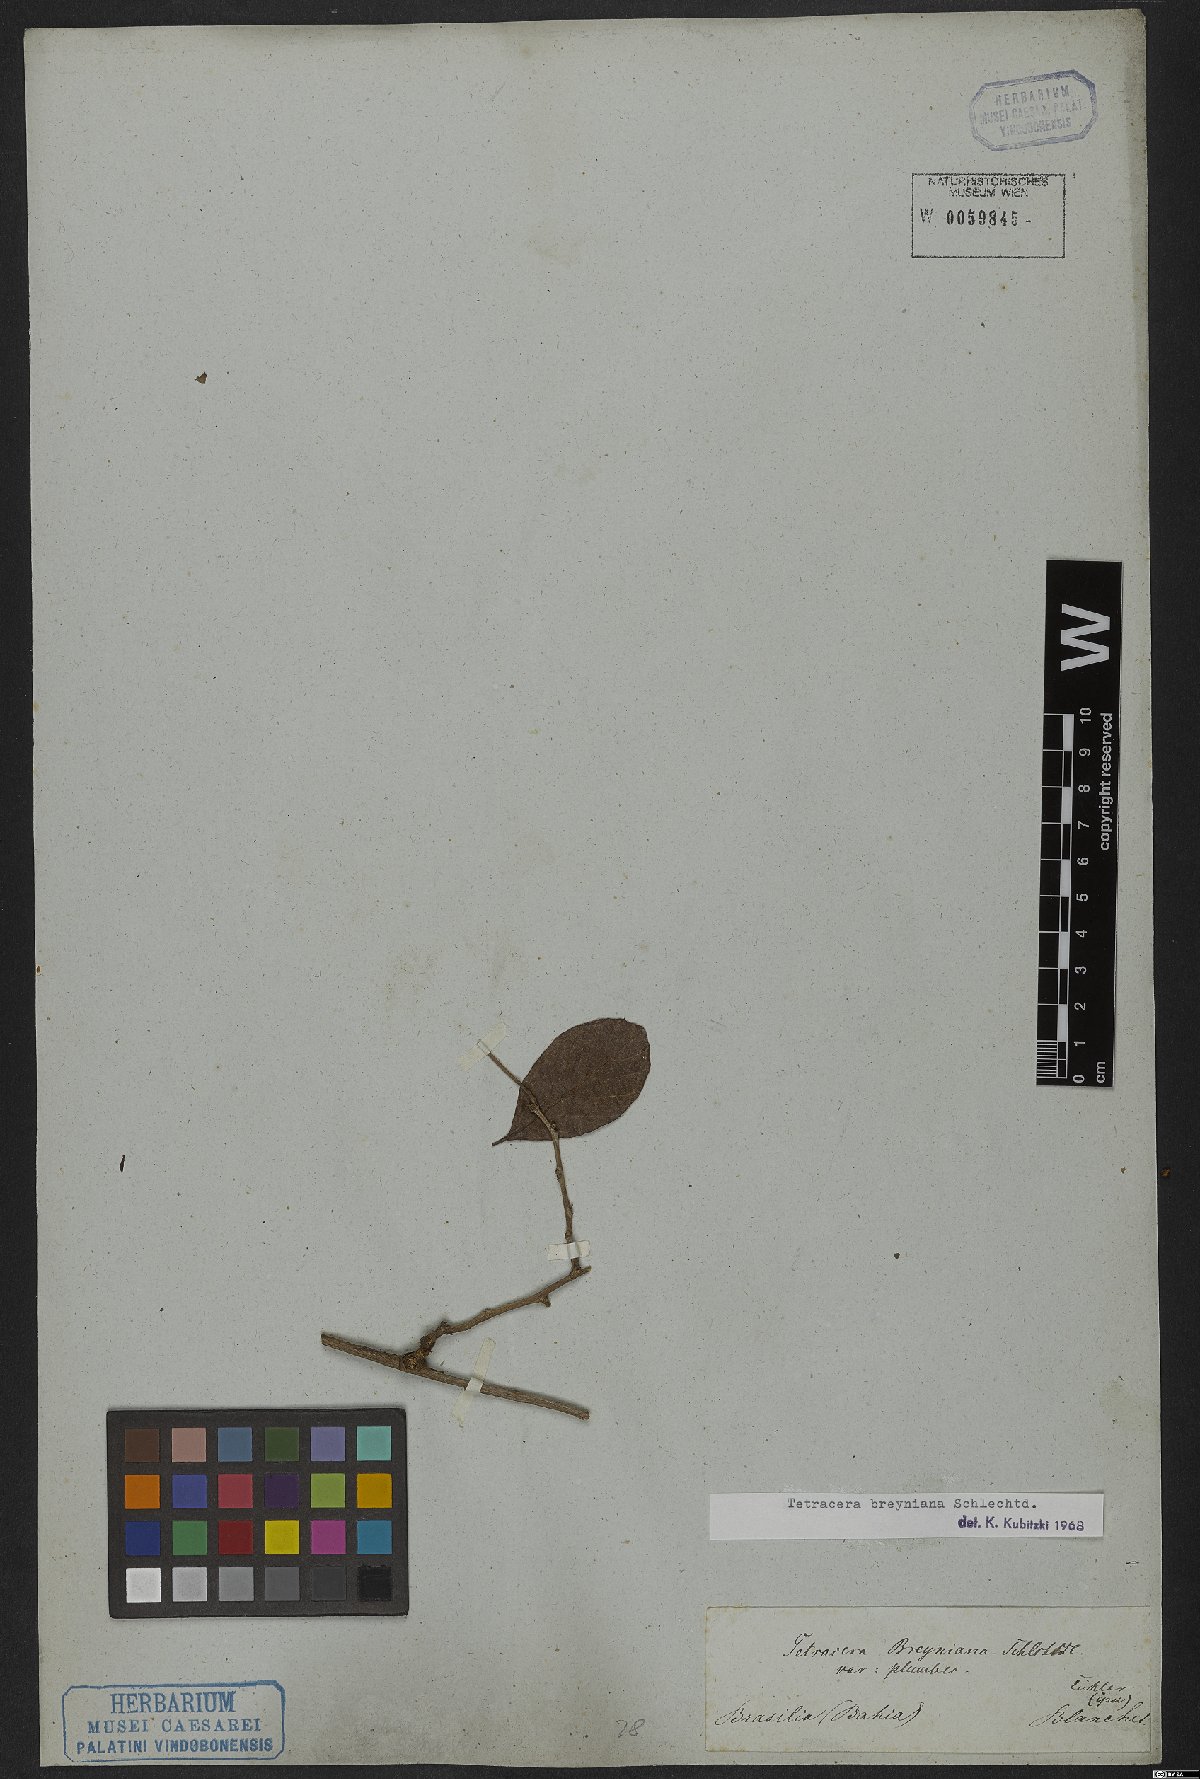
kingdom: Plantae
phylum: Tracheophyta
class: Magnoliopsida
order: Dilleniales
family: Dilleniaceae
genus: Tetracera
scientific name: Tetracera breyniana
